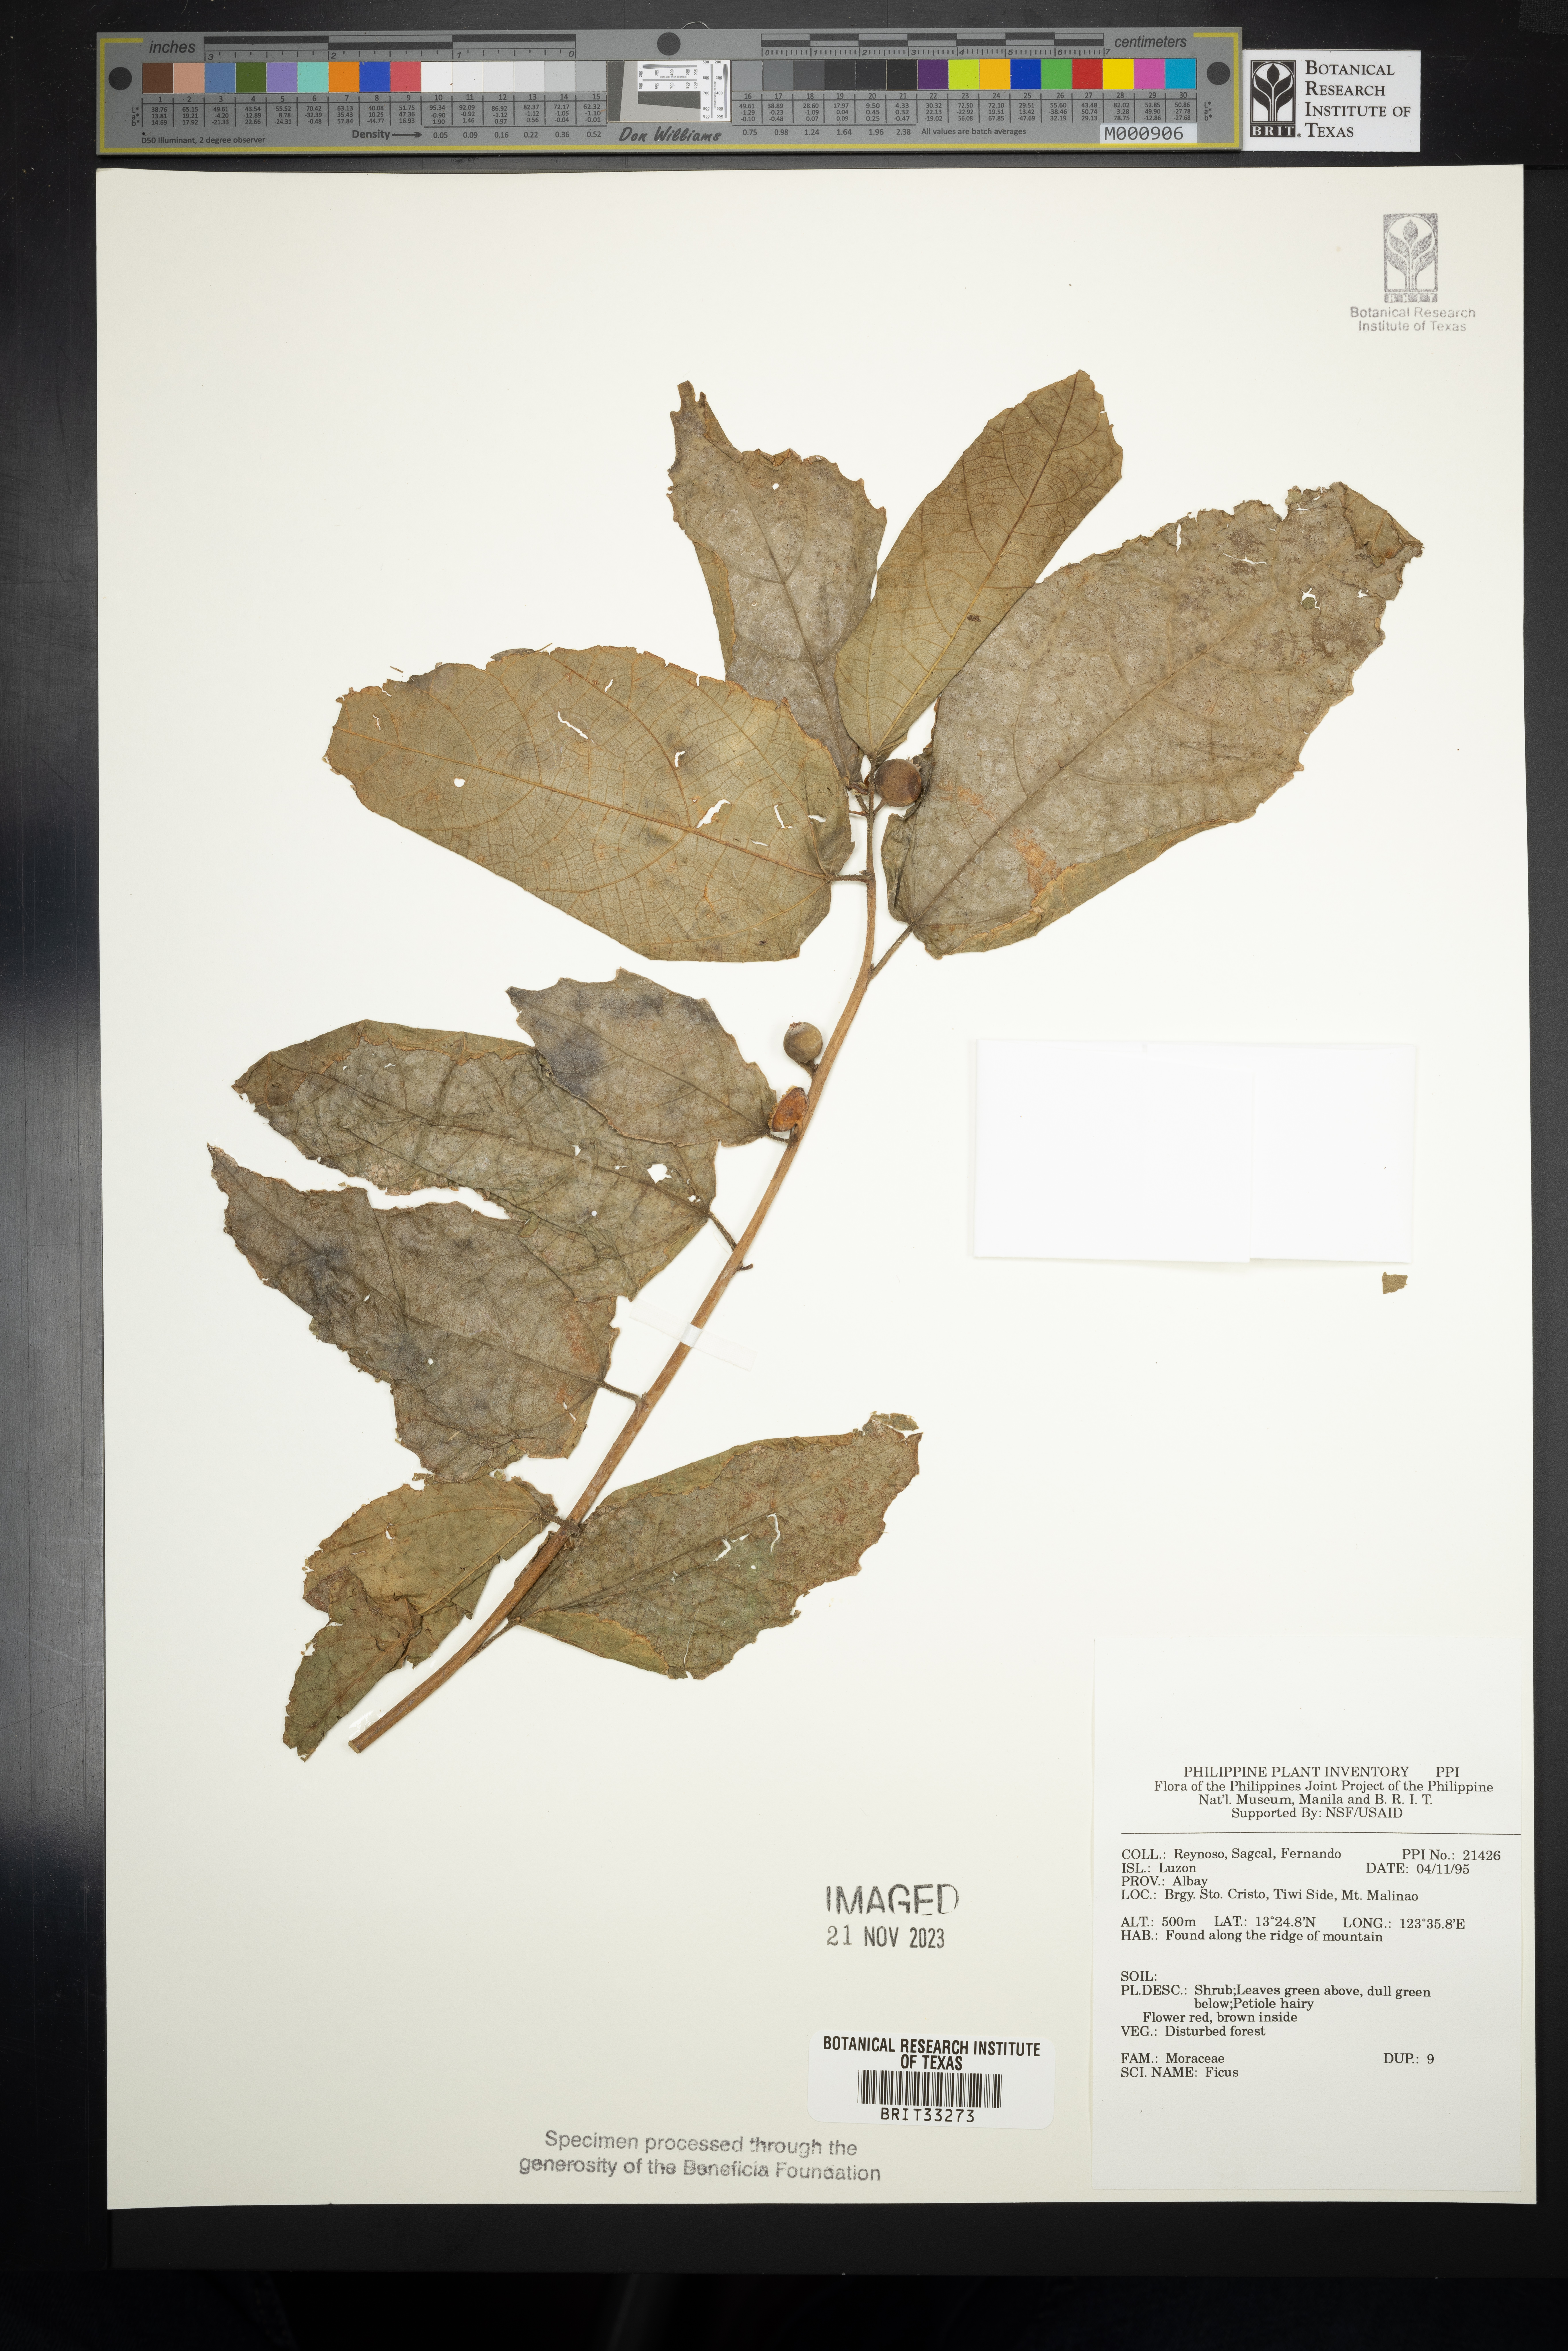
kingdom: Plantae
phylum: Tracheophyta
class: Magnoliopsida
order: Rosales
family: Moraceae
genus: Ficus
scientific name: Ficus
